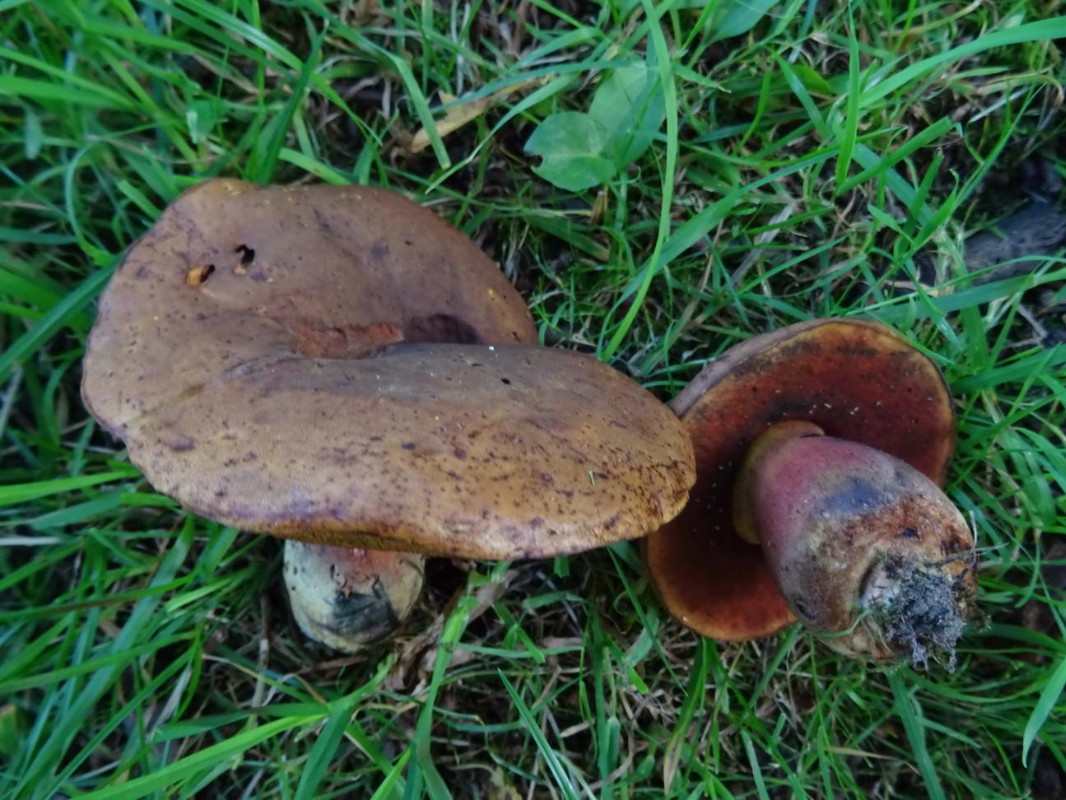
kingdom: Fungi
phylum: Basidiomycota
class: Agaricomycetes
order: Boletales
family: Boletaceae
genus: Neoboletus
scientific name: Neoboletus erythropus
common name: punktstokket indigorørhat
